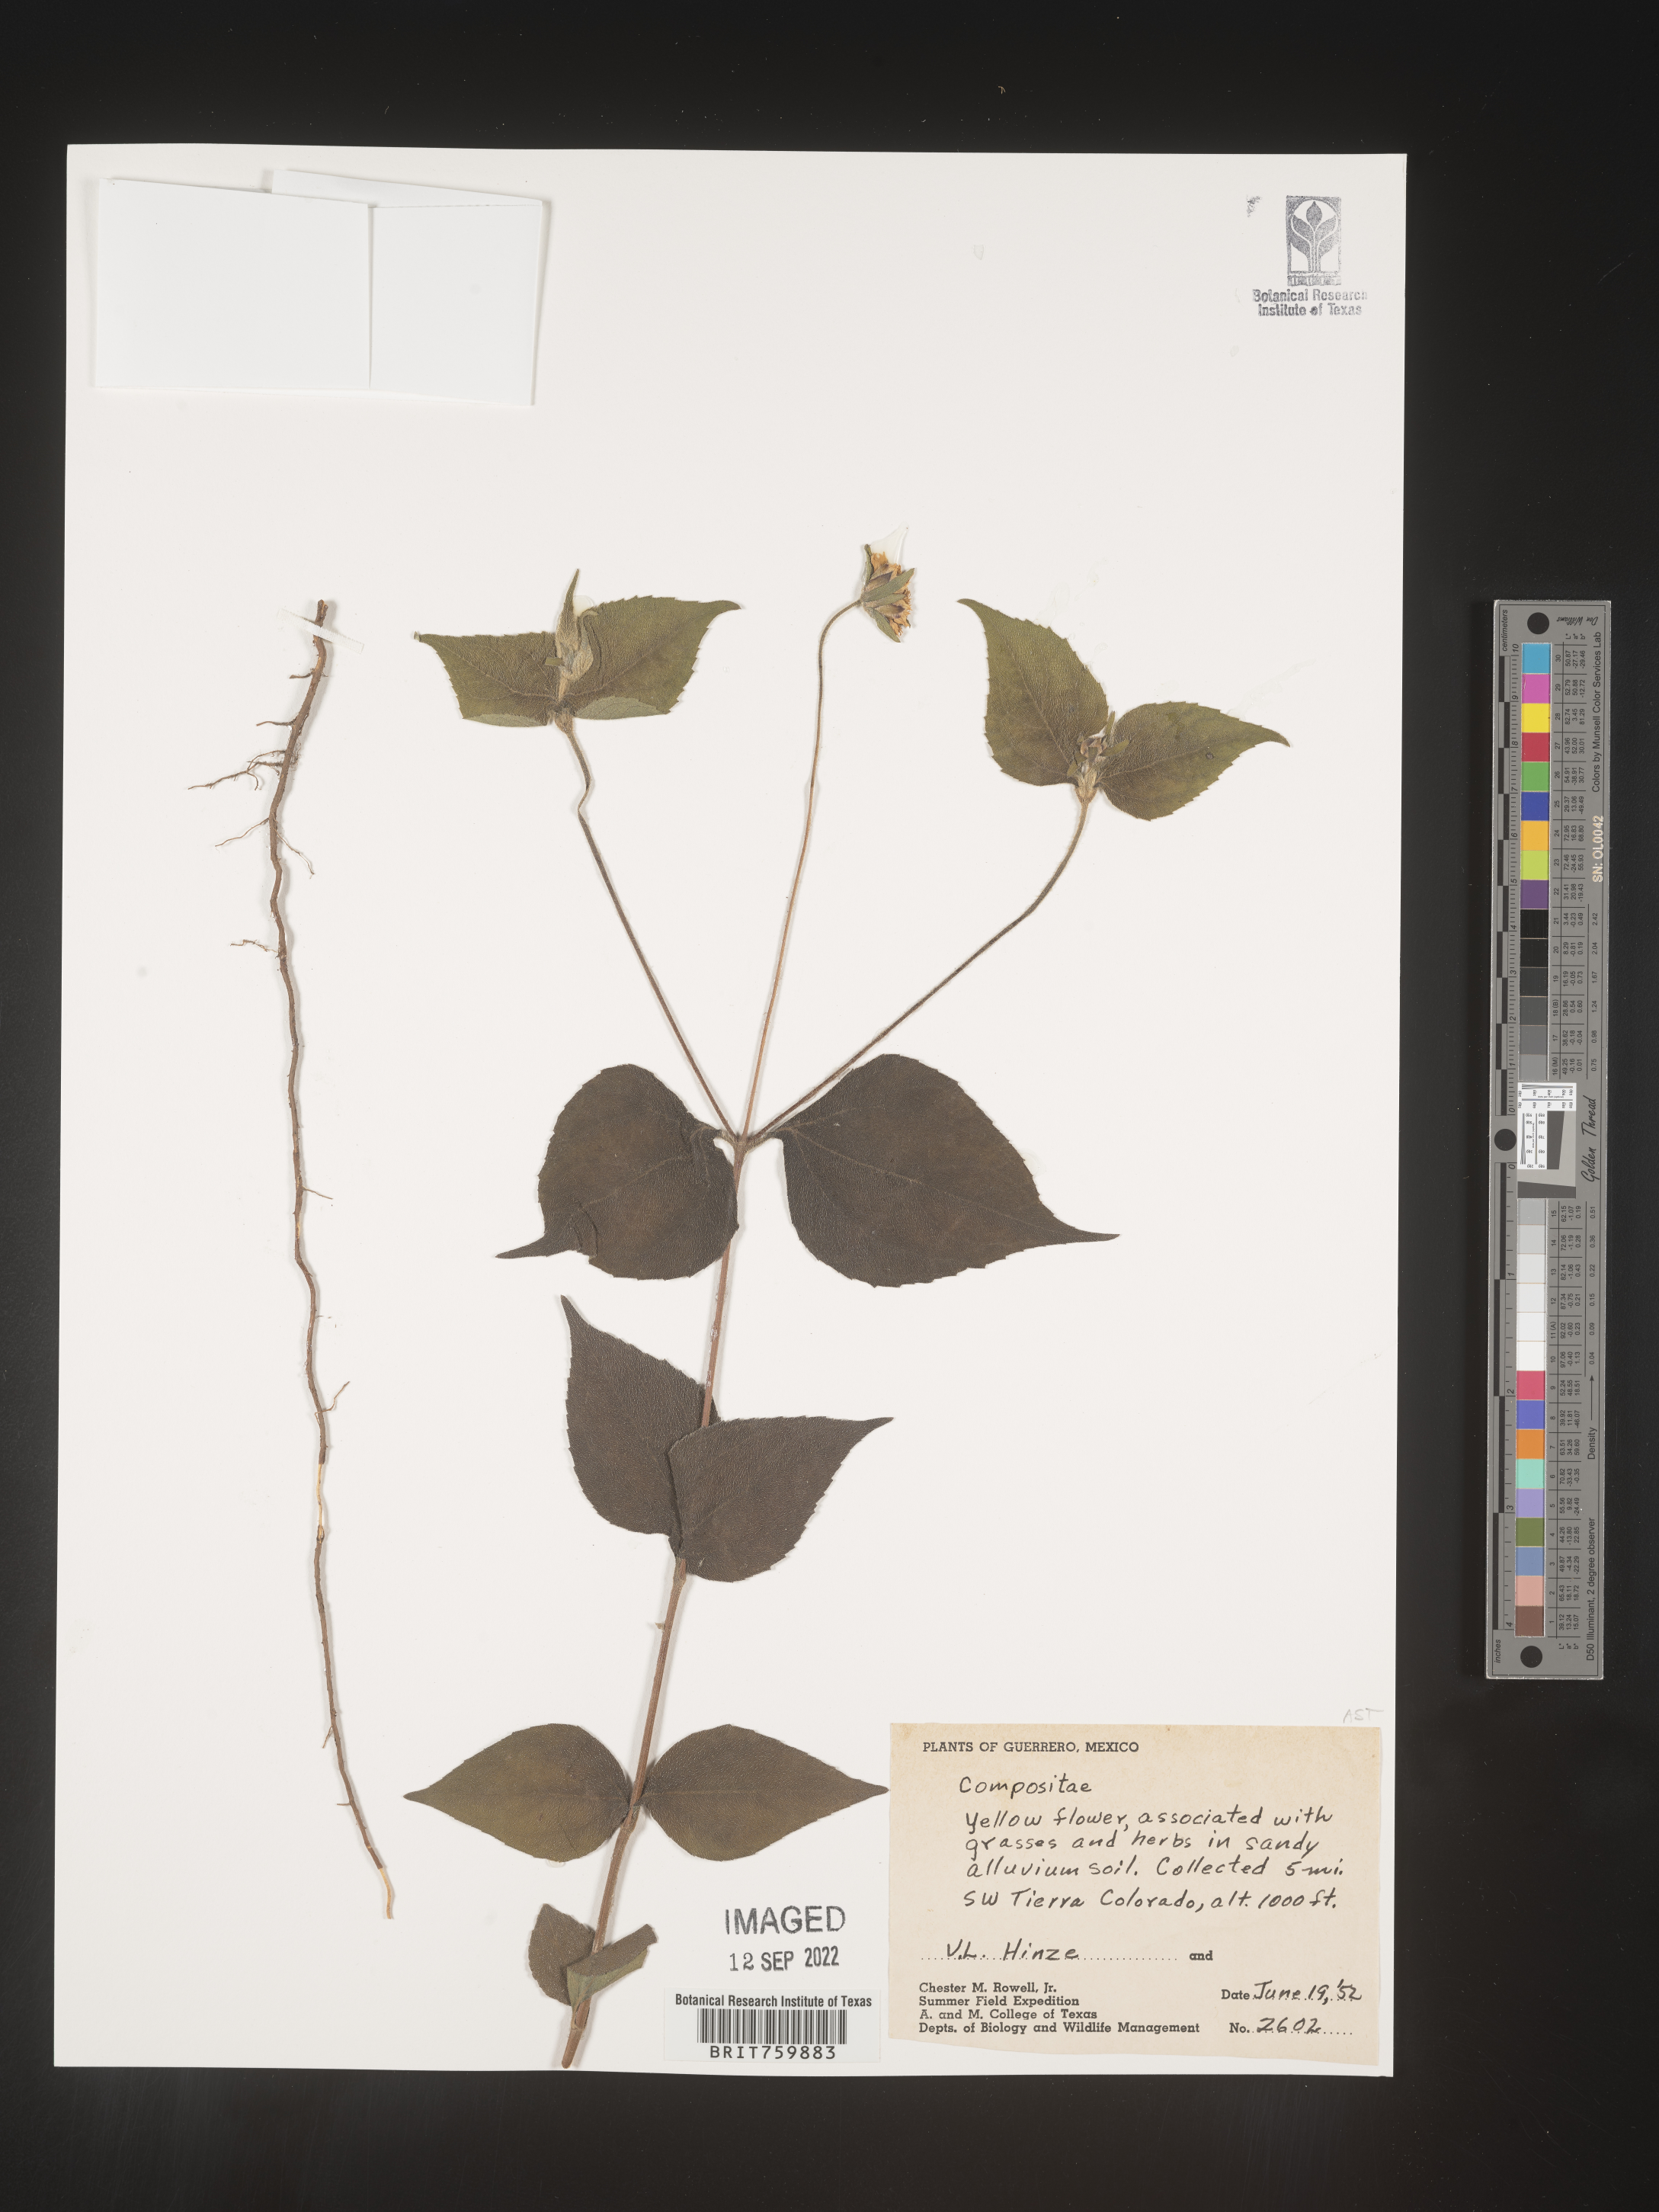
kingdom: Plantae
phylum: Tracheophyta
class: Magnoliopsida
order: Asterales
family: Asteraceae
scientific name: Asteraceae
